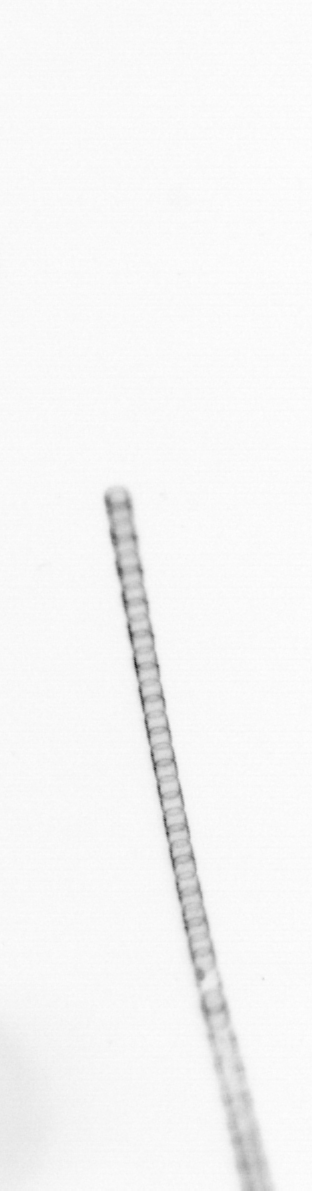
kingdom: Chromista
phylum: Ochrophyta
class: Bacillariophyceae
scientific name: Bacillariophyceae
